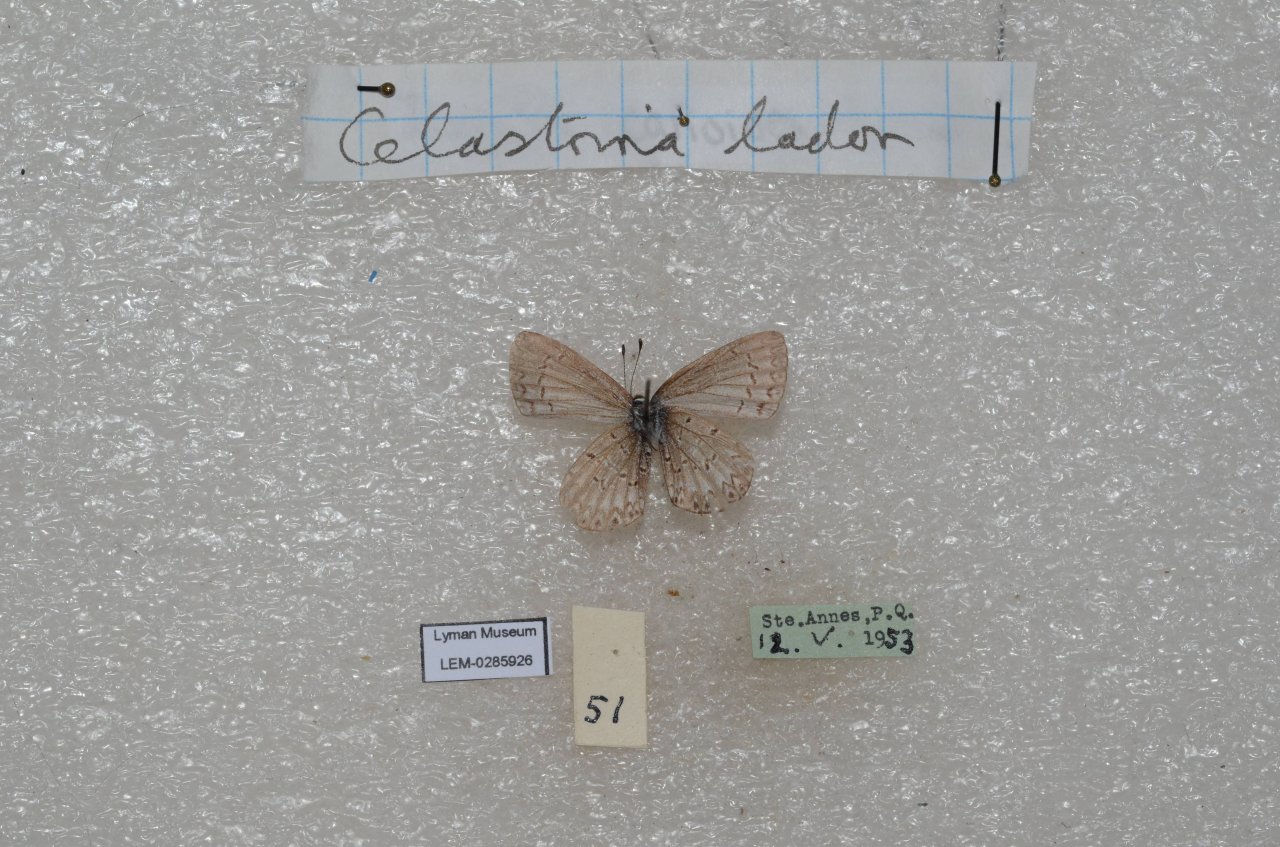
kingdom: Animalia
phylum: Arthropoda
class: Insecta
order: Lepidoptera
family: Lycaenidae
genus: Celastrina
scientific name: Celastrina lucia
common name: Northern Spring Azure
